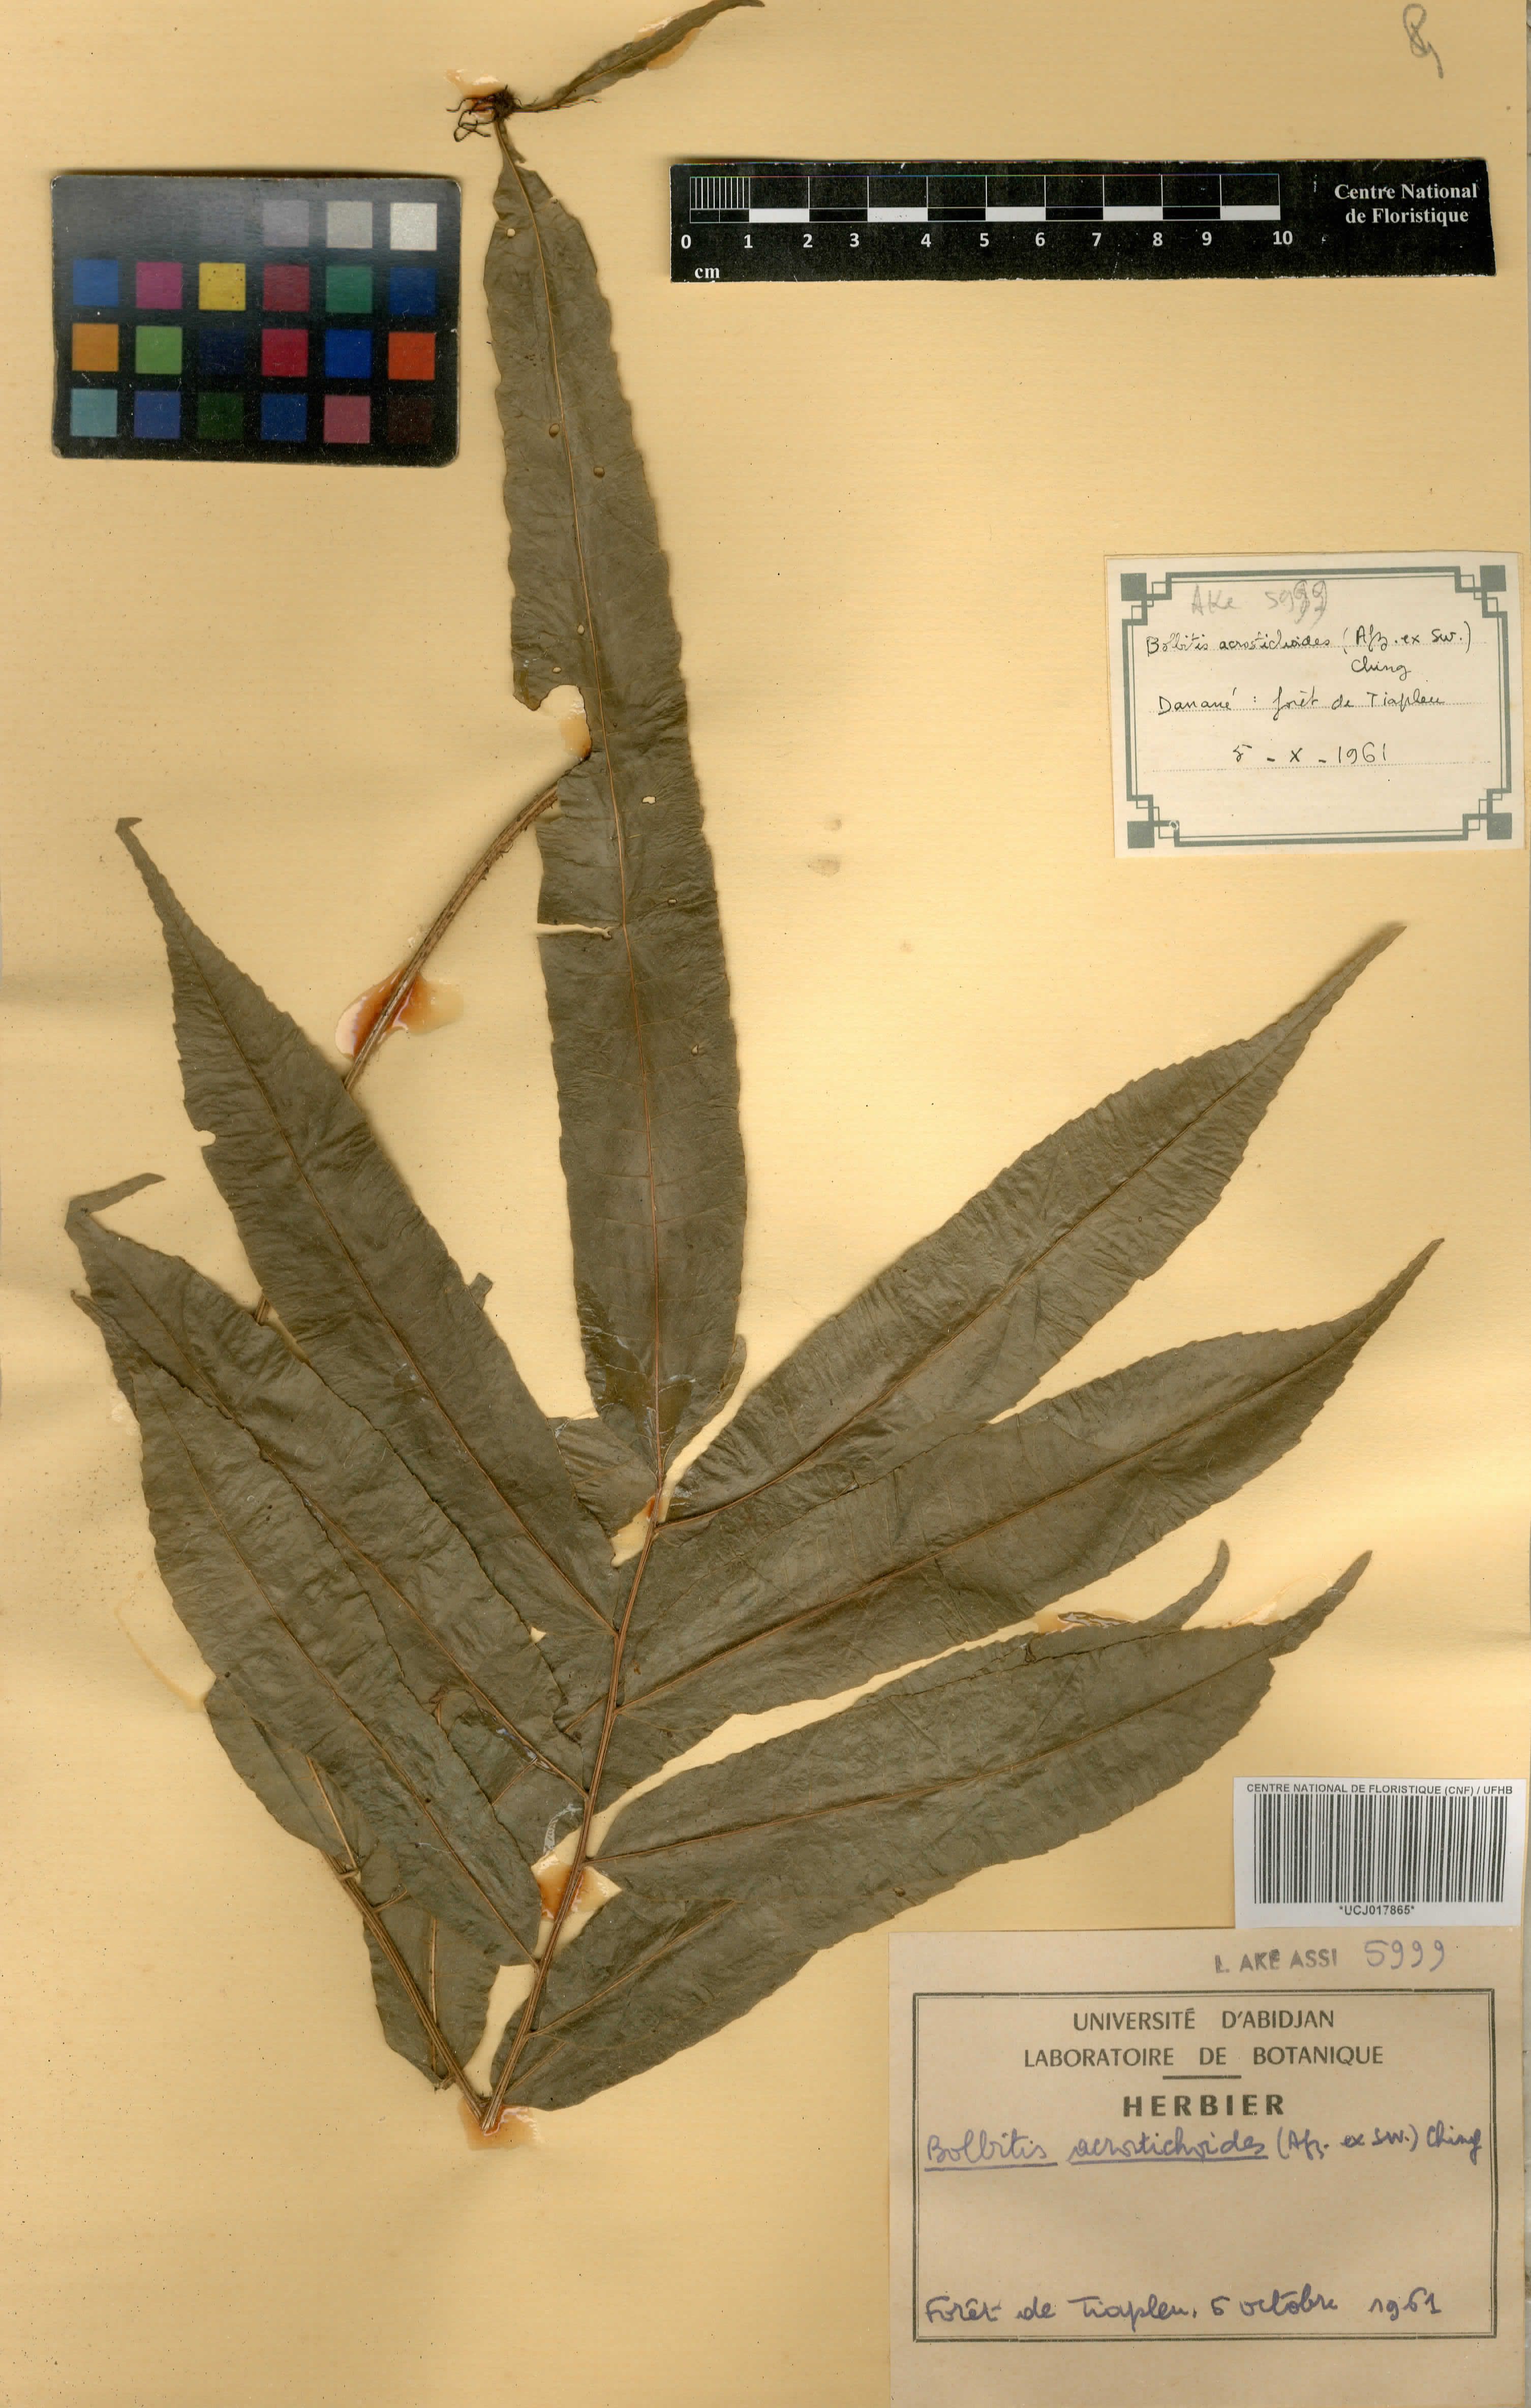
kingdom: Plantae
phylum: Tracheophyta
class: Polypodiopsida
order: Polypodiales
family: Dryopteridaceae
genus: Bolbitis
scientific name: Bolbitis acrostichoides
